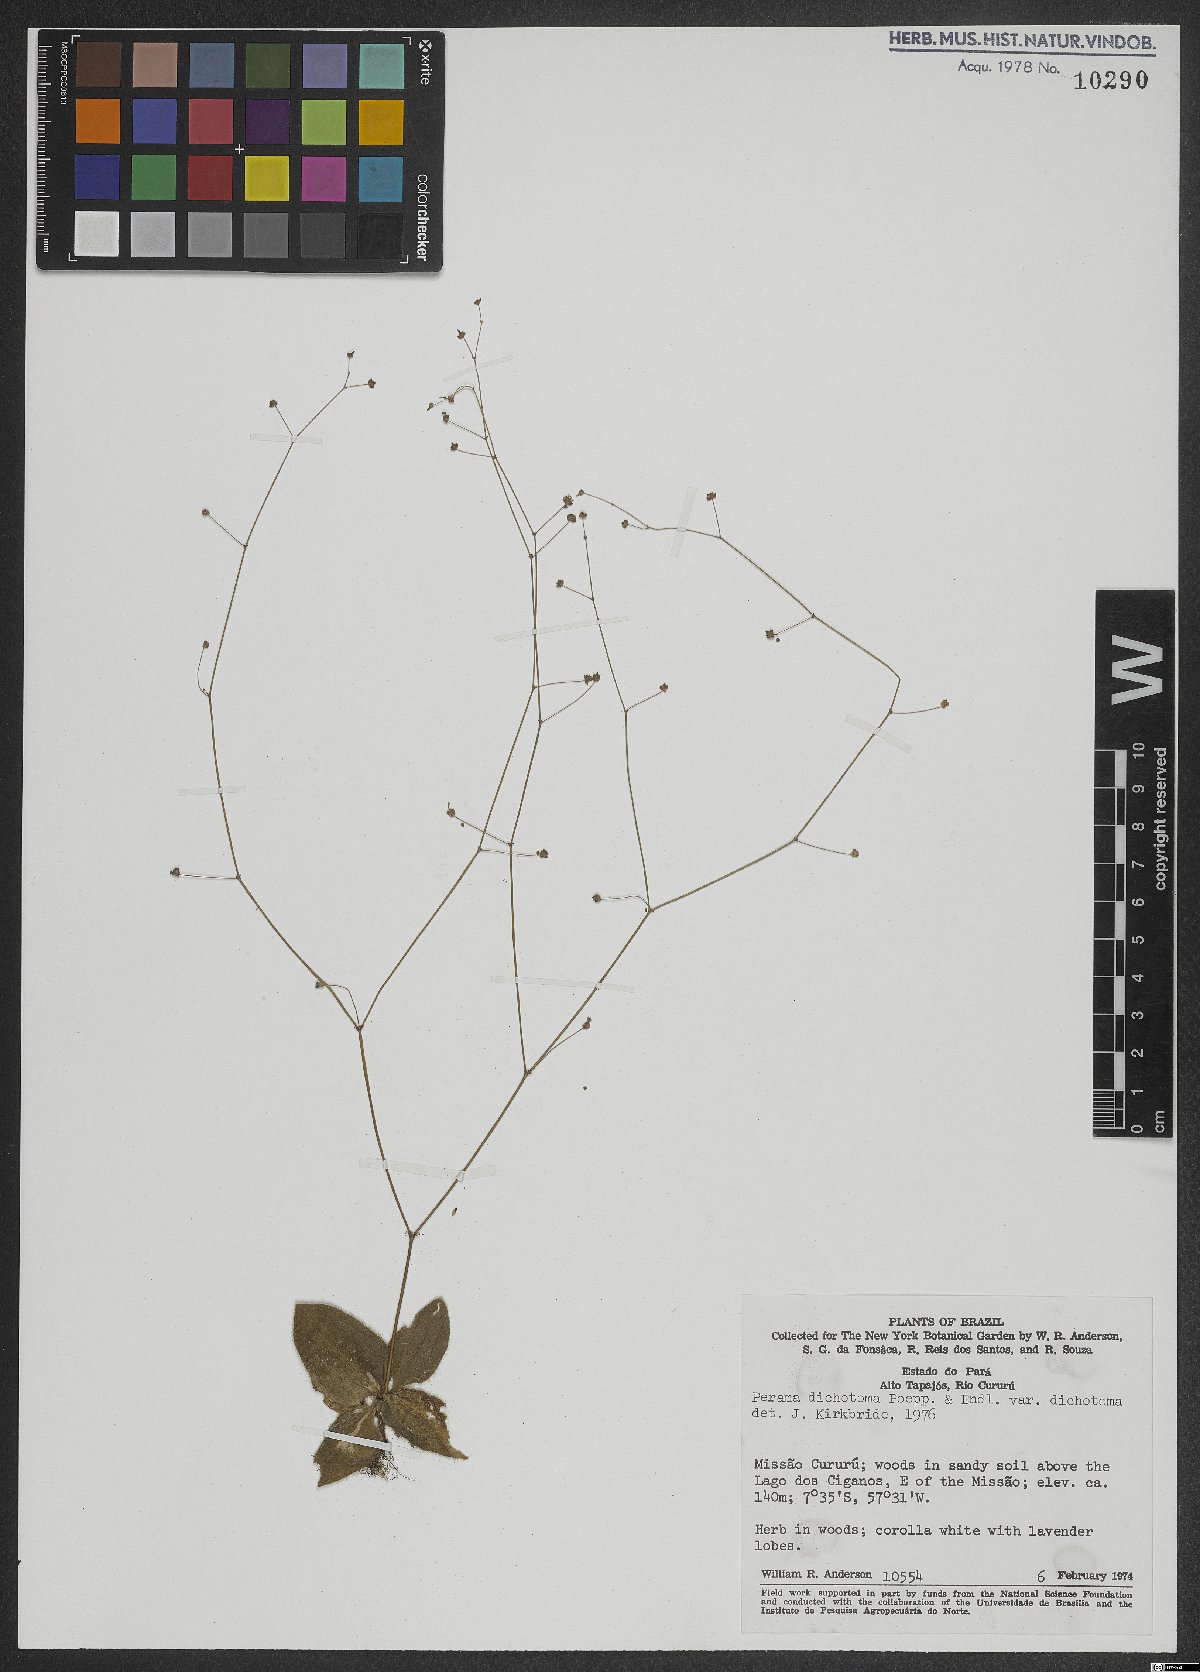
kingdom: Plantae
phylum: Tracheophyta
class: Magnoliopsida
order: Gentianales
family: Rubiaceae
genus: Perama
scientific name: Perama dichotoma
